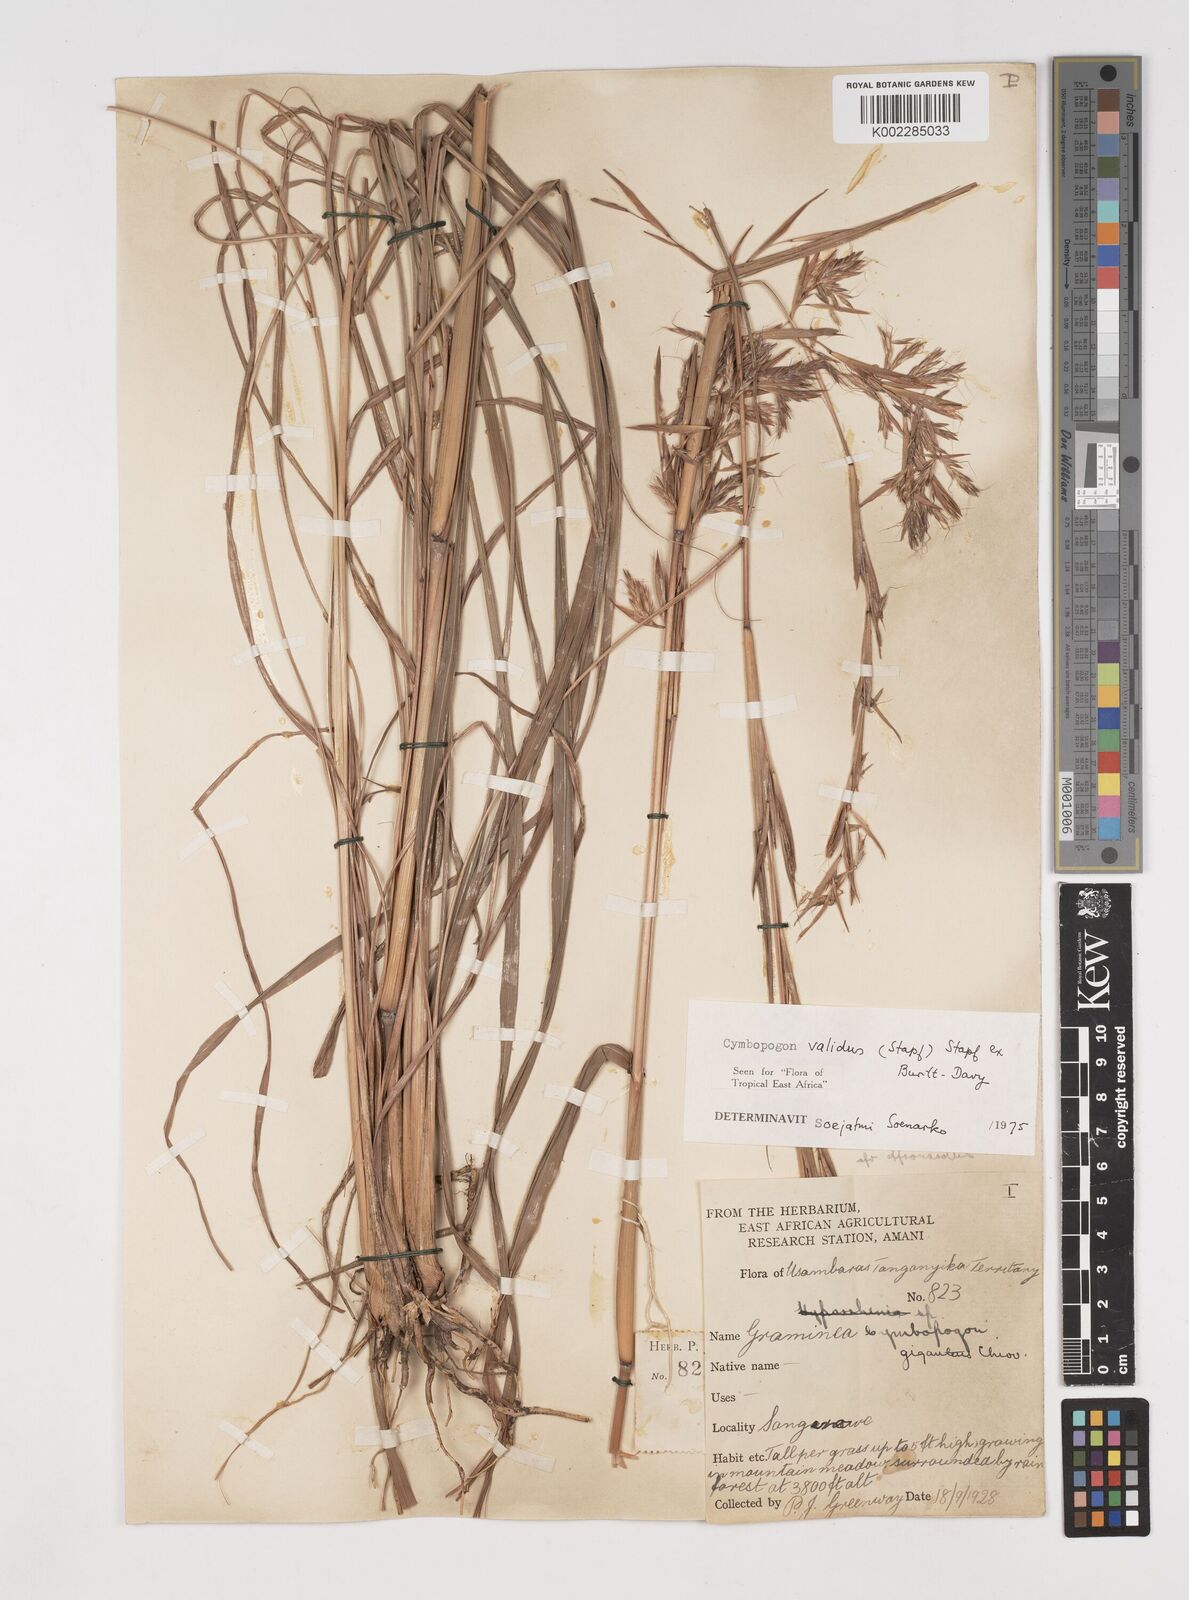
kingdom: Plantae
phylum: Tracheophyta
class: Liliopsida
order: Poales
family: Poaceae
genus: Cymbopogon
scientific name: Cymbopogon nardus
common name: Giant turpentine grass
